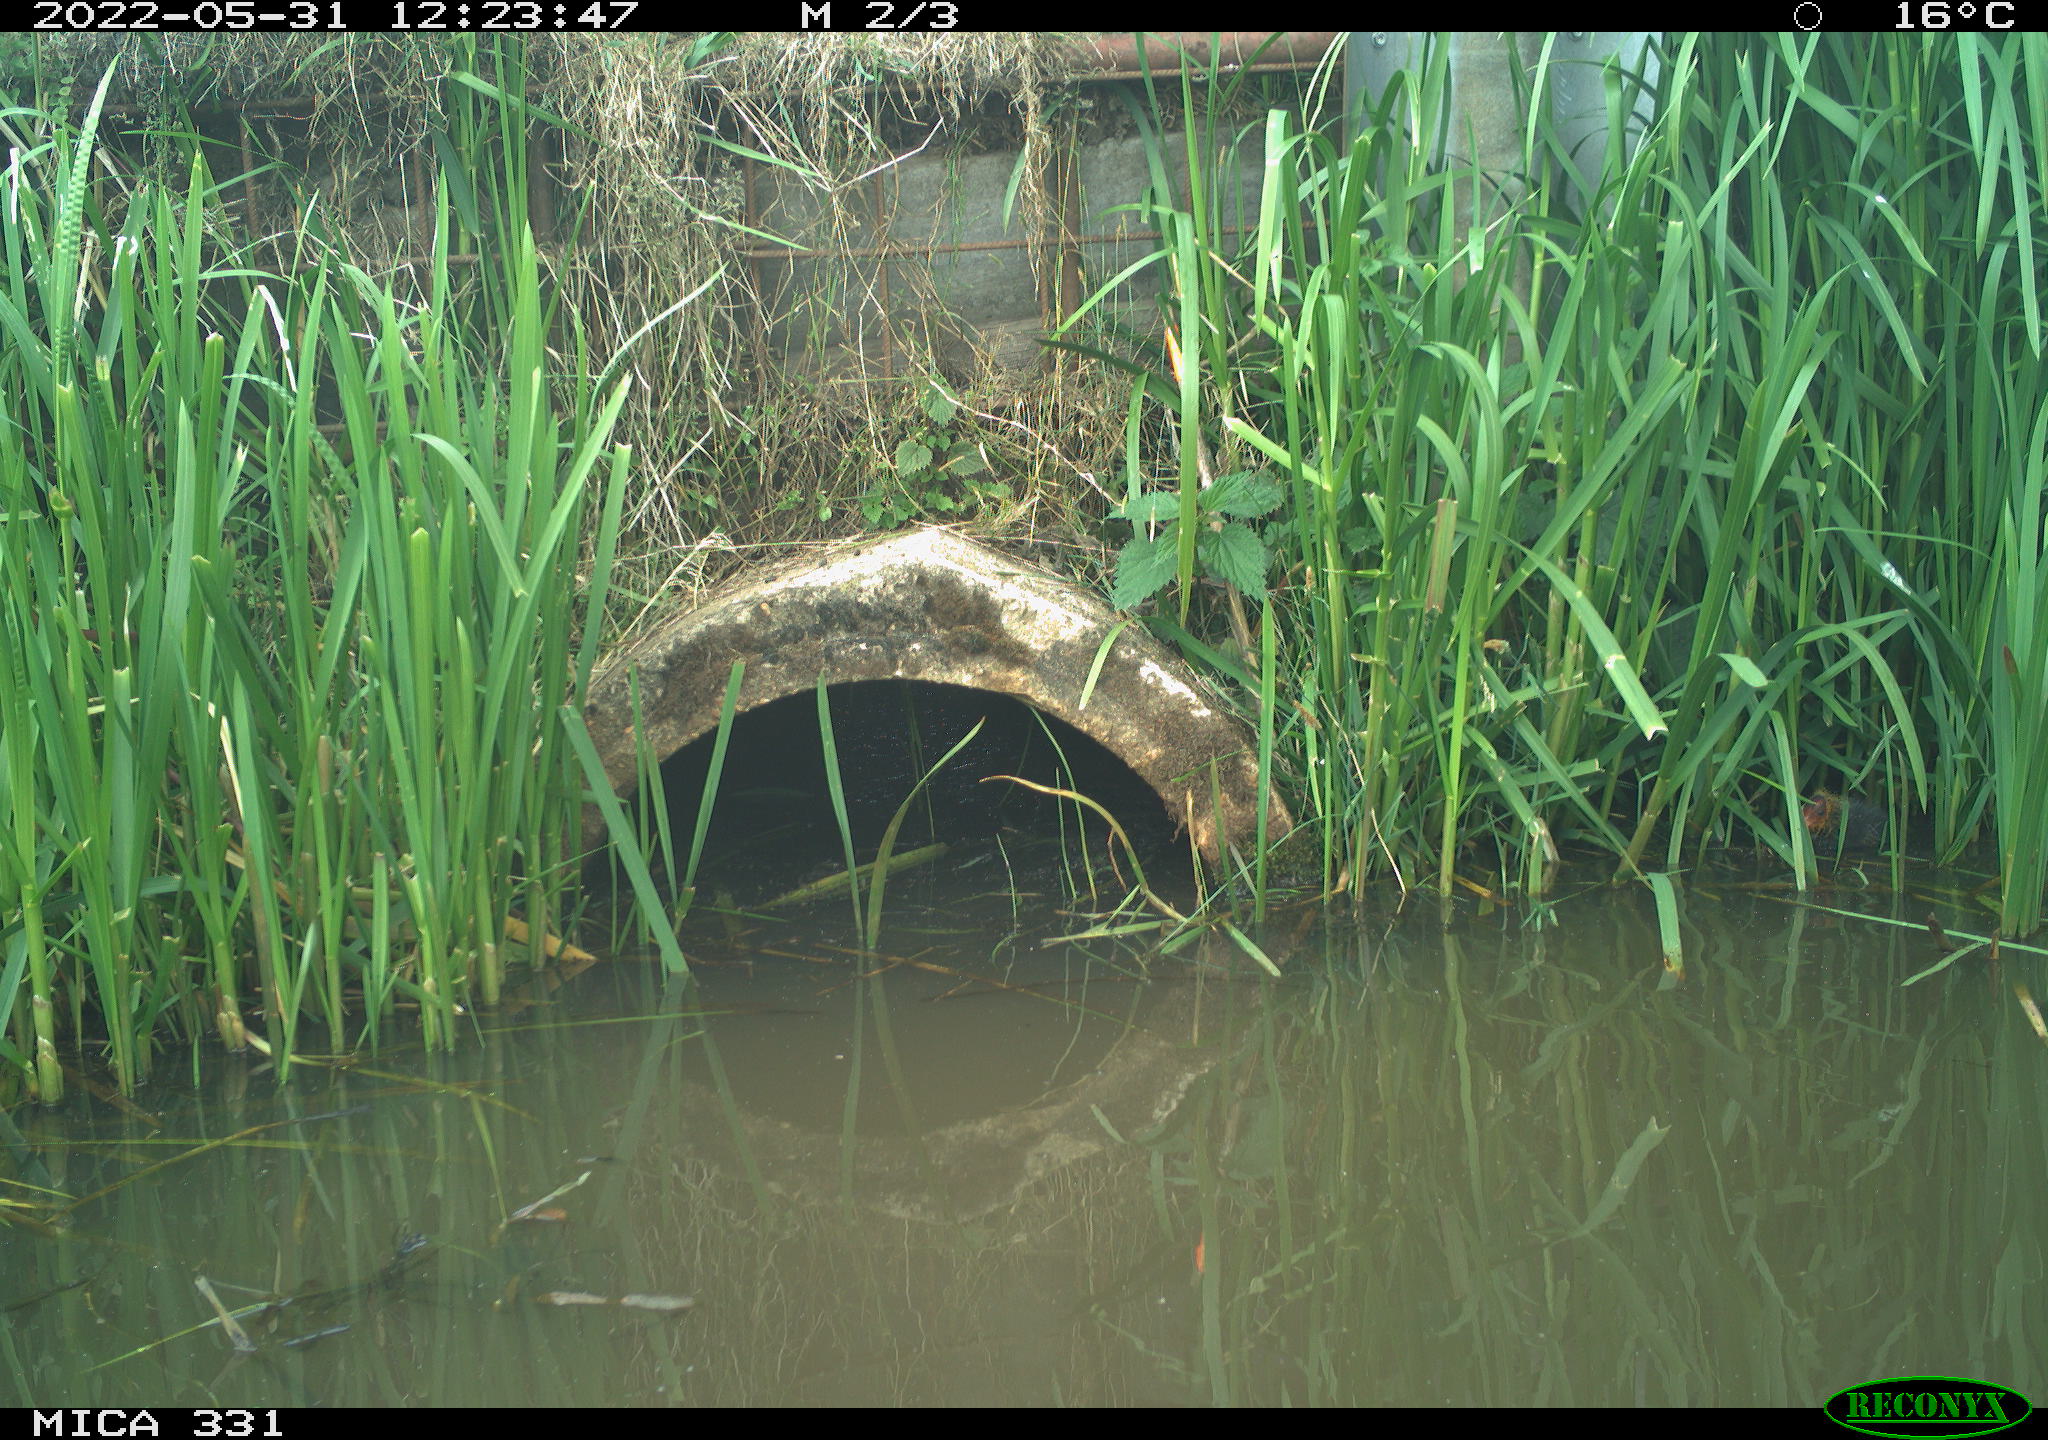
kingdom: Animalia
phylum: Chordata
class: Aves
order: Gruiformes
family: Rallidae
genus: Fulica
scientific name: Fulica atra
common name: Eurasian coot
